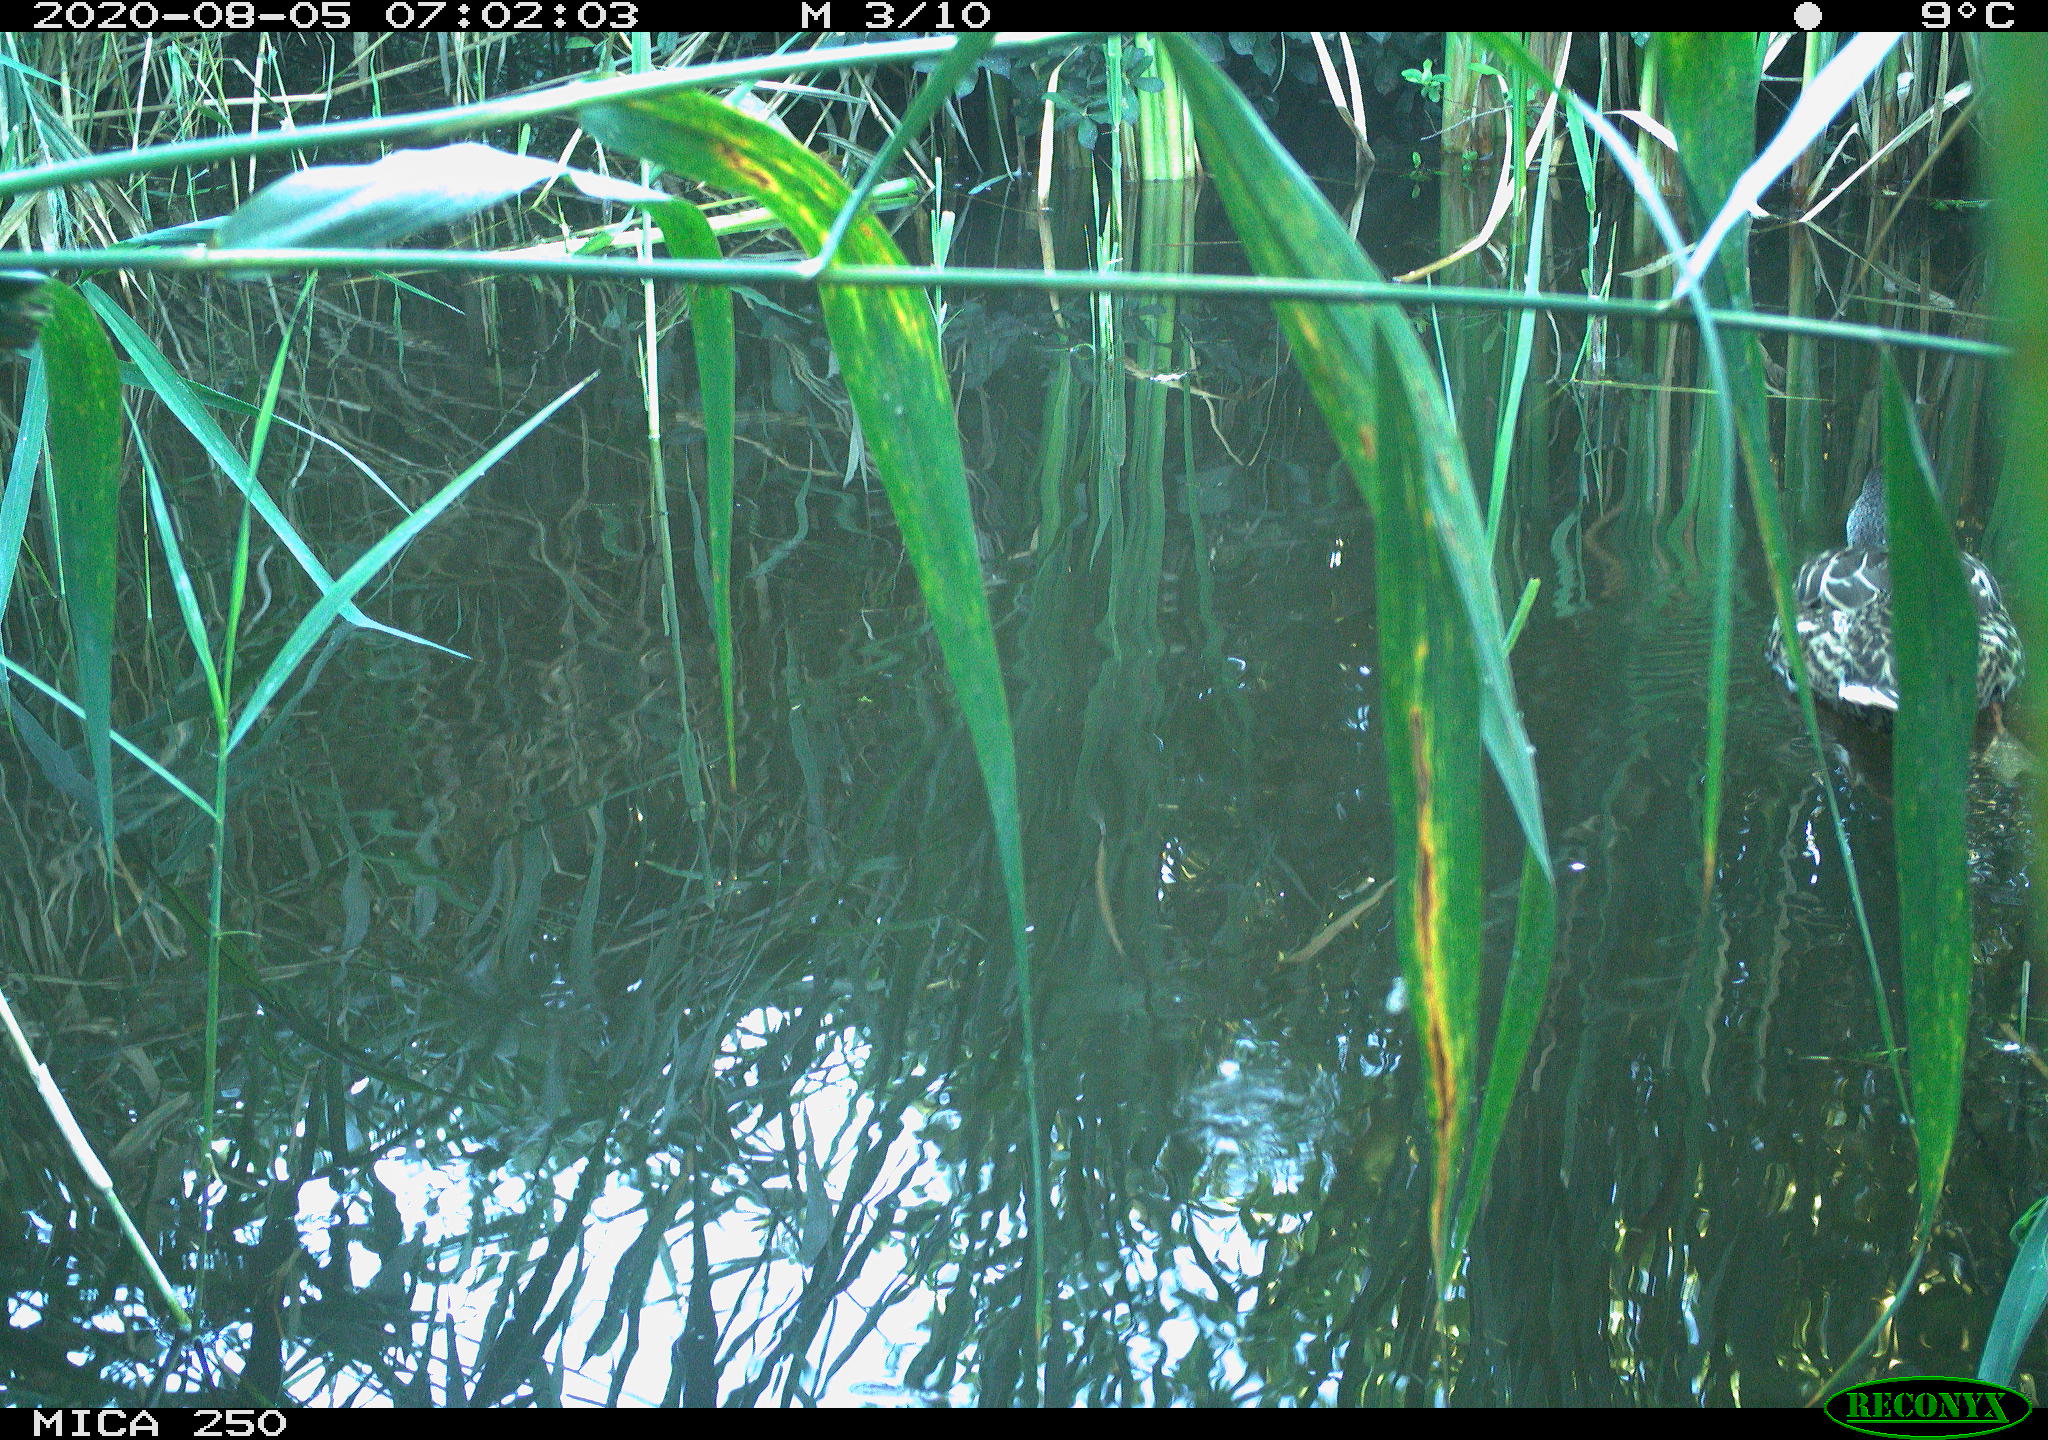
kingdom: Animalia
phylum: Chordata
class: Aves
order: Anseriformes
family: Anatidae
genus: Mareca
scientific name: Mareca strepera
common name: Gadwall
